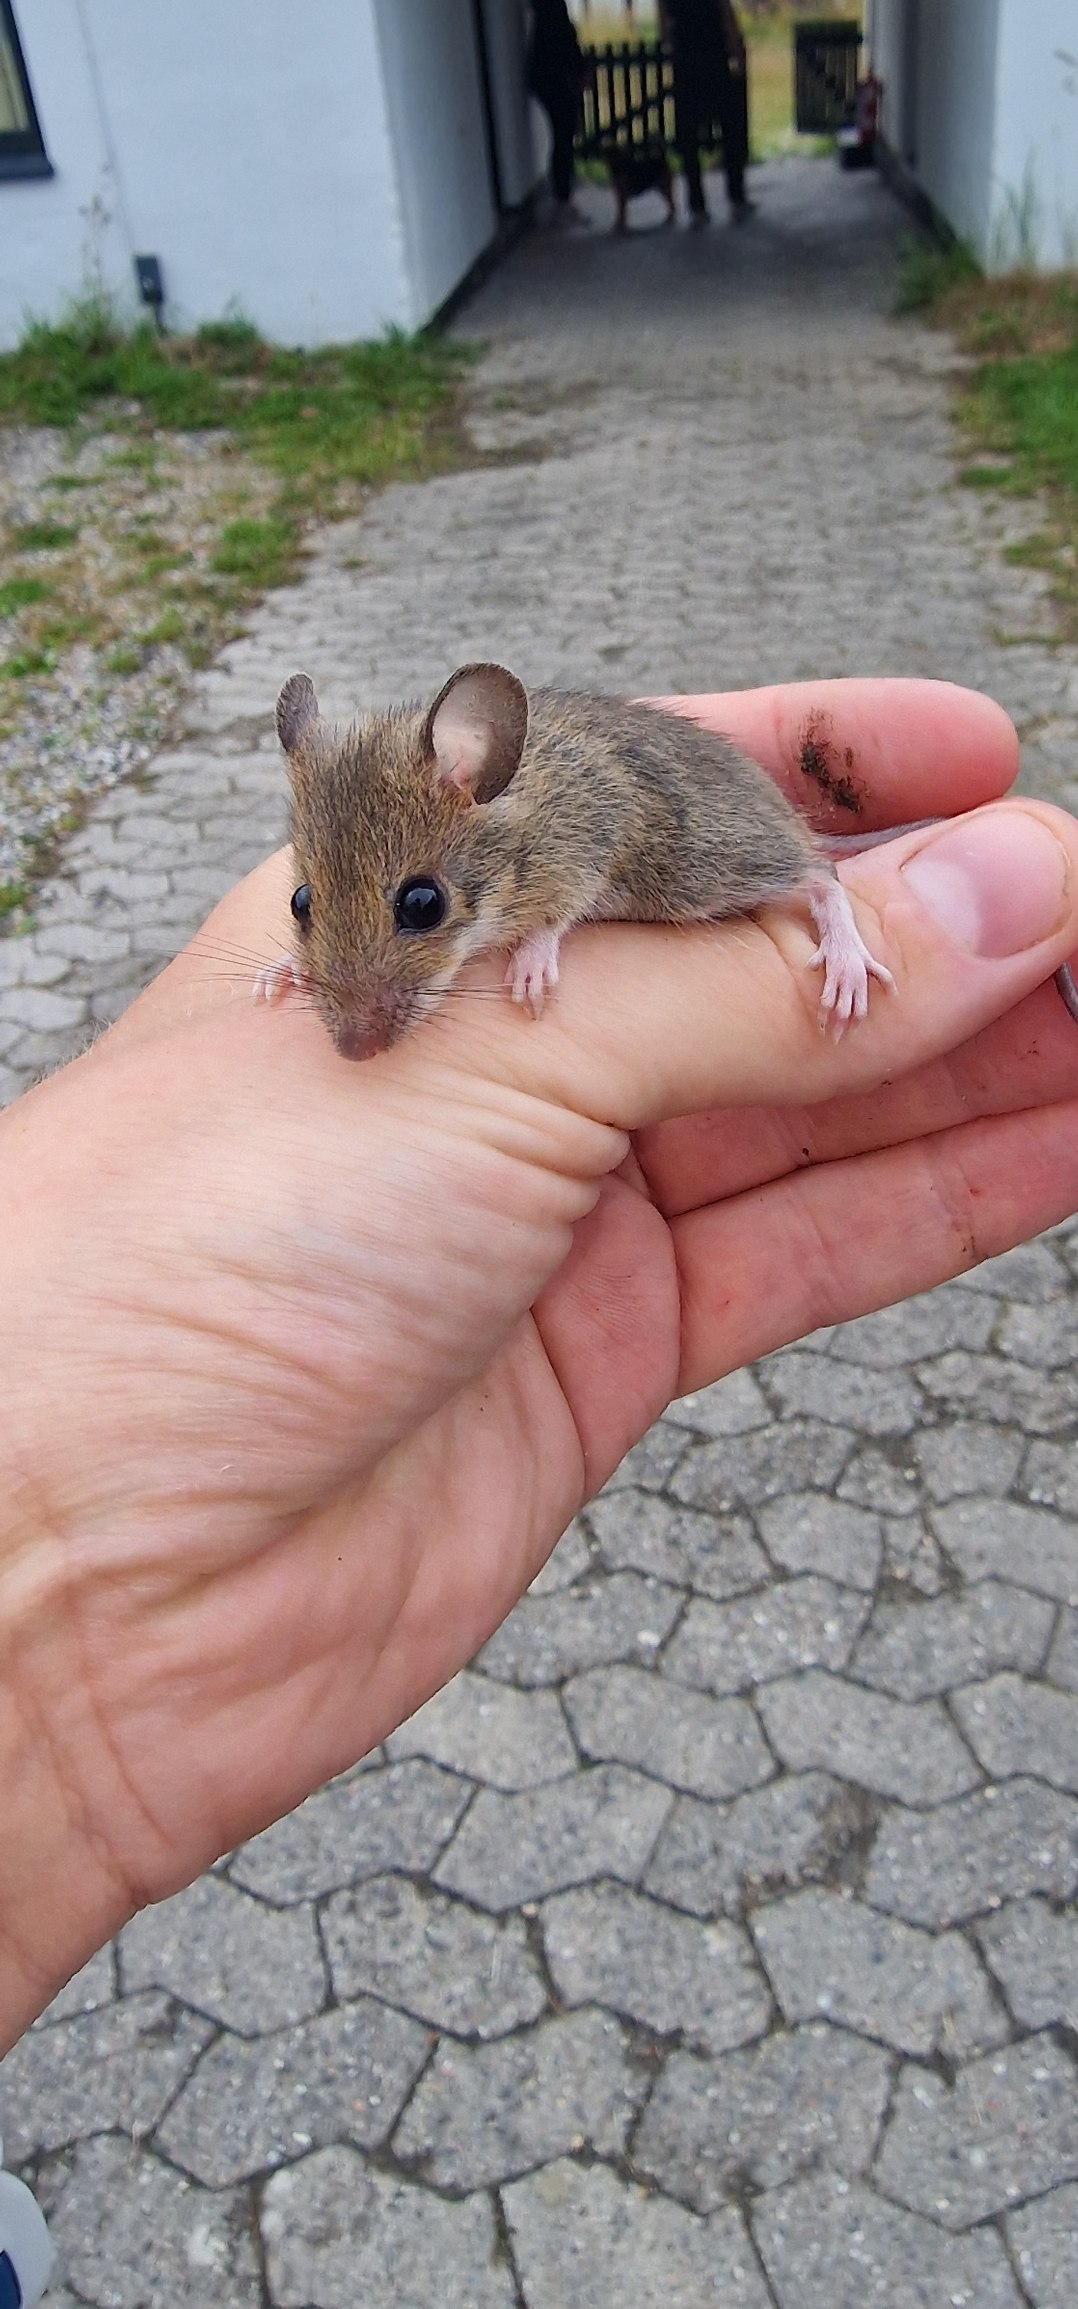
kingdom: Animalia
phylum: Chordata
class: Mammalia
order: Rodentia
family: Muridae
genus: Apodemus
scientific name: Apodemus flavicollis
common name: Halsbåndmus
